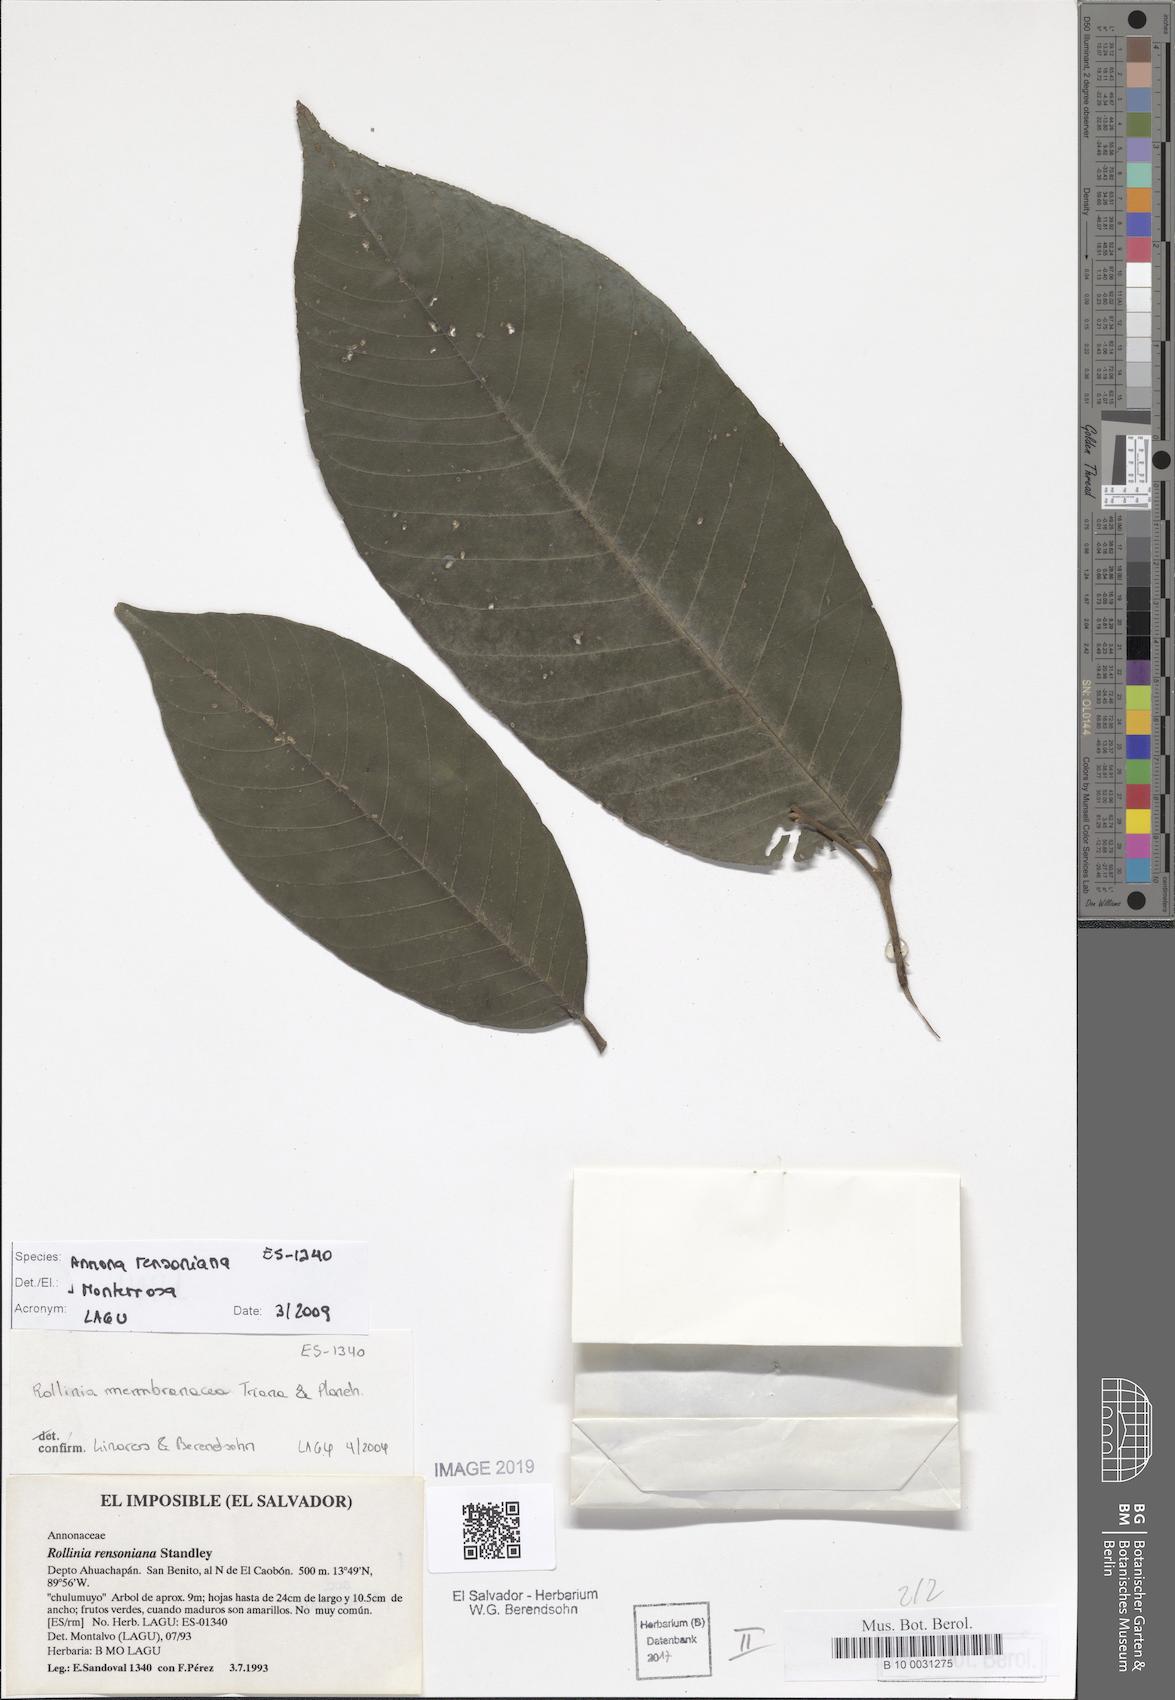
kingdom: Plantae
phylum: Tracheophyta
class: Magnoliopsida
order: Magnoliales
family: Annonaceae
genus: Annona
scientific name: Annona rensoniana
